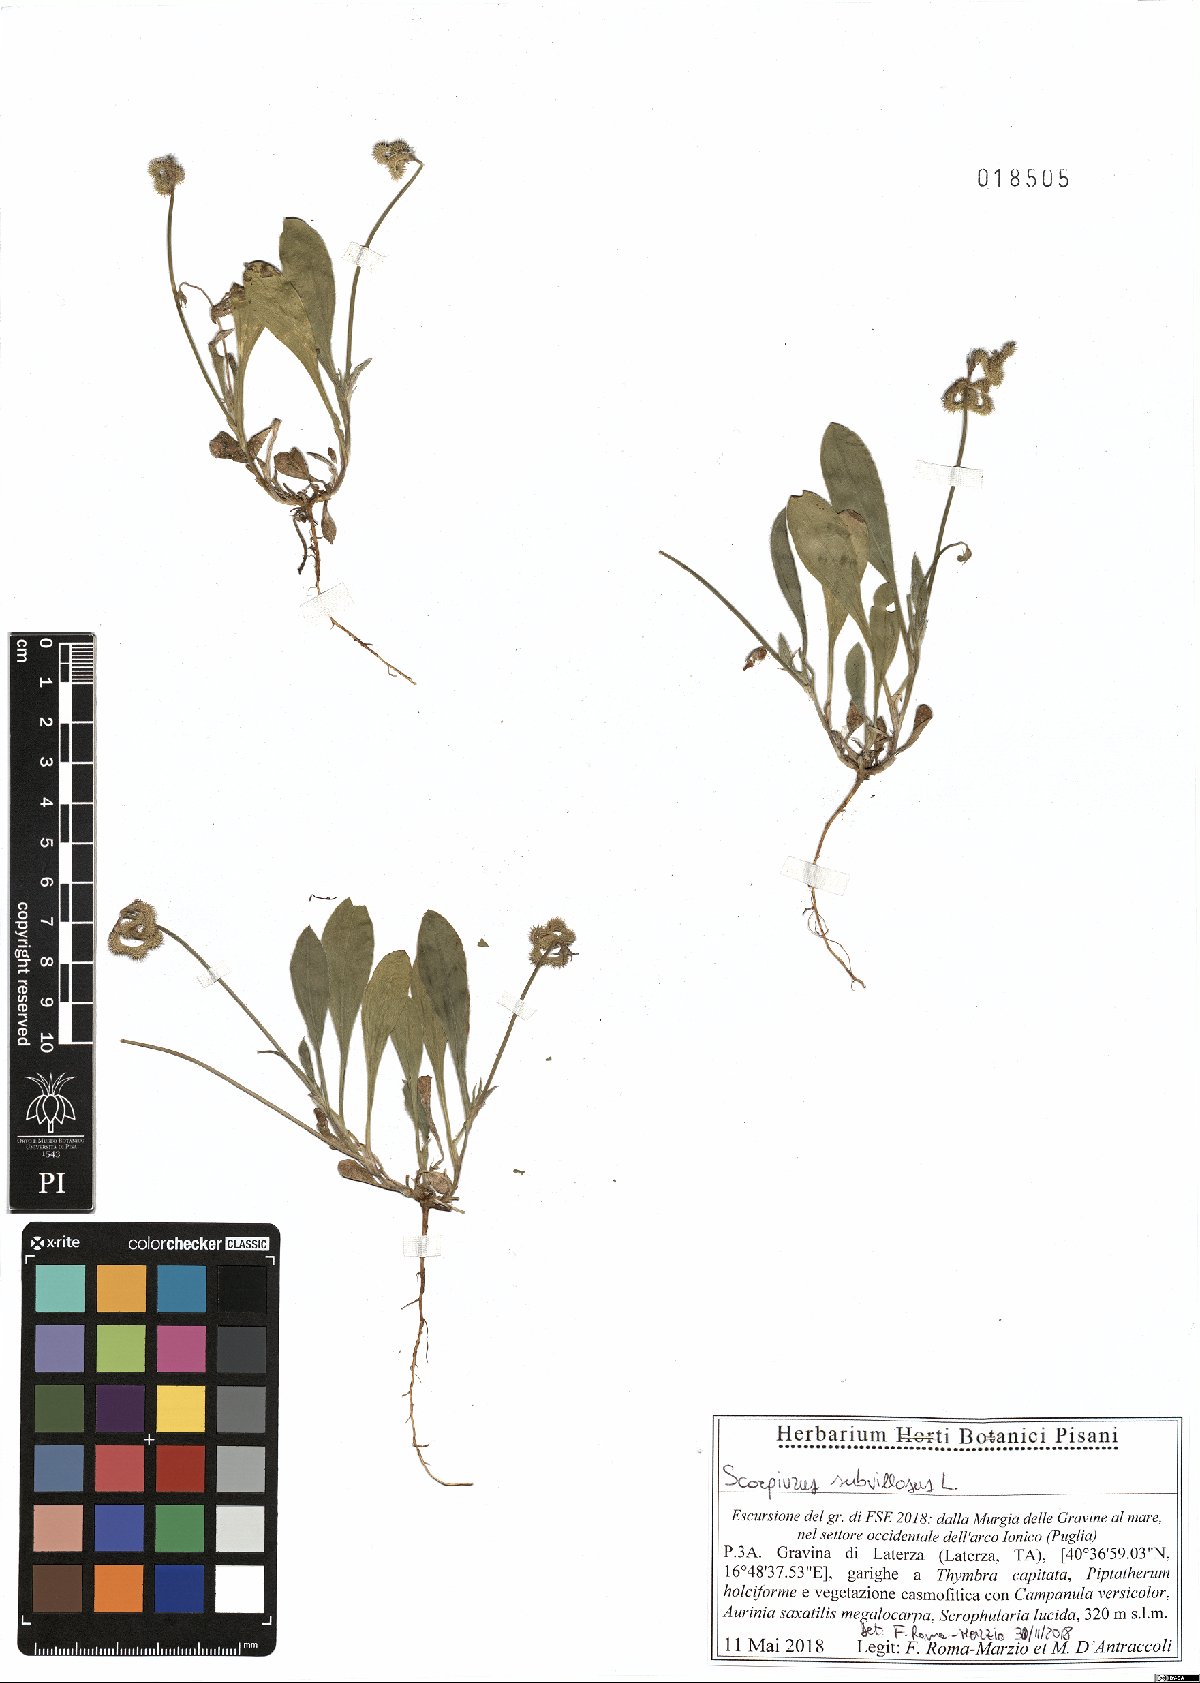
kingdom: Plantae
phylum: Tracheophyta
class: Magnoliopsida
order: Fabales
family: Fabaceae
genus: Scorpiurus
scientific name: Scorpiurus muricatus
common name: Caterpillar-plant
